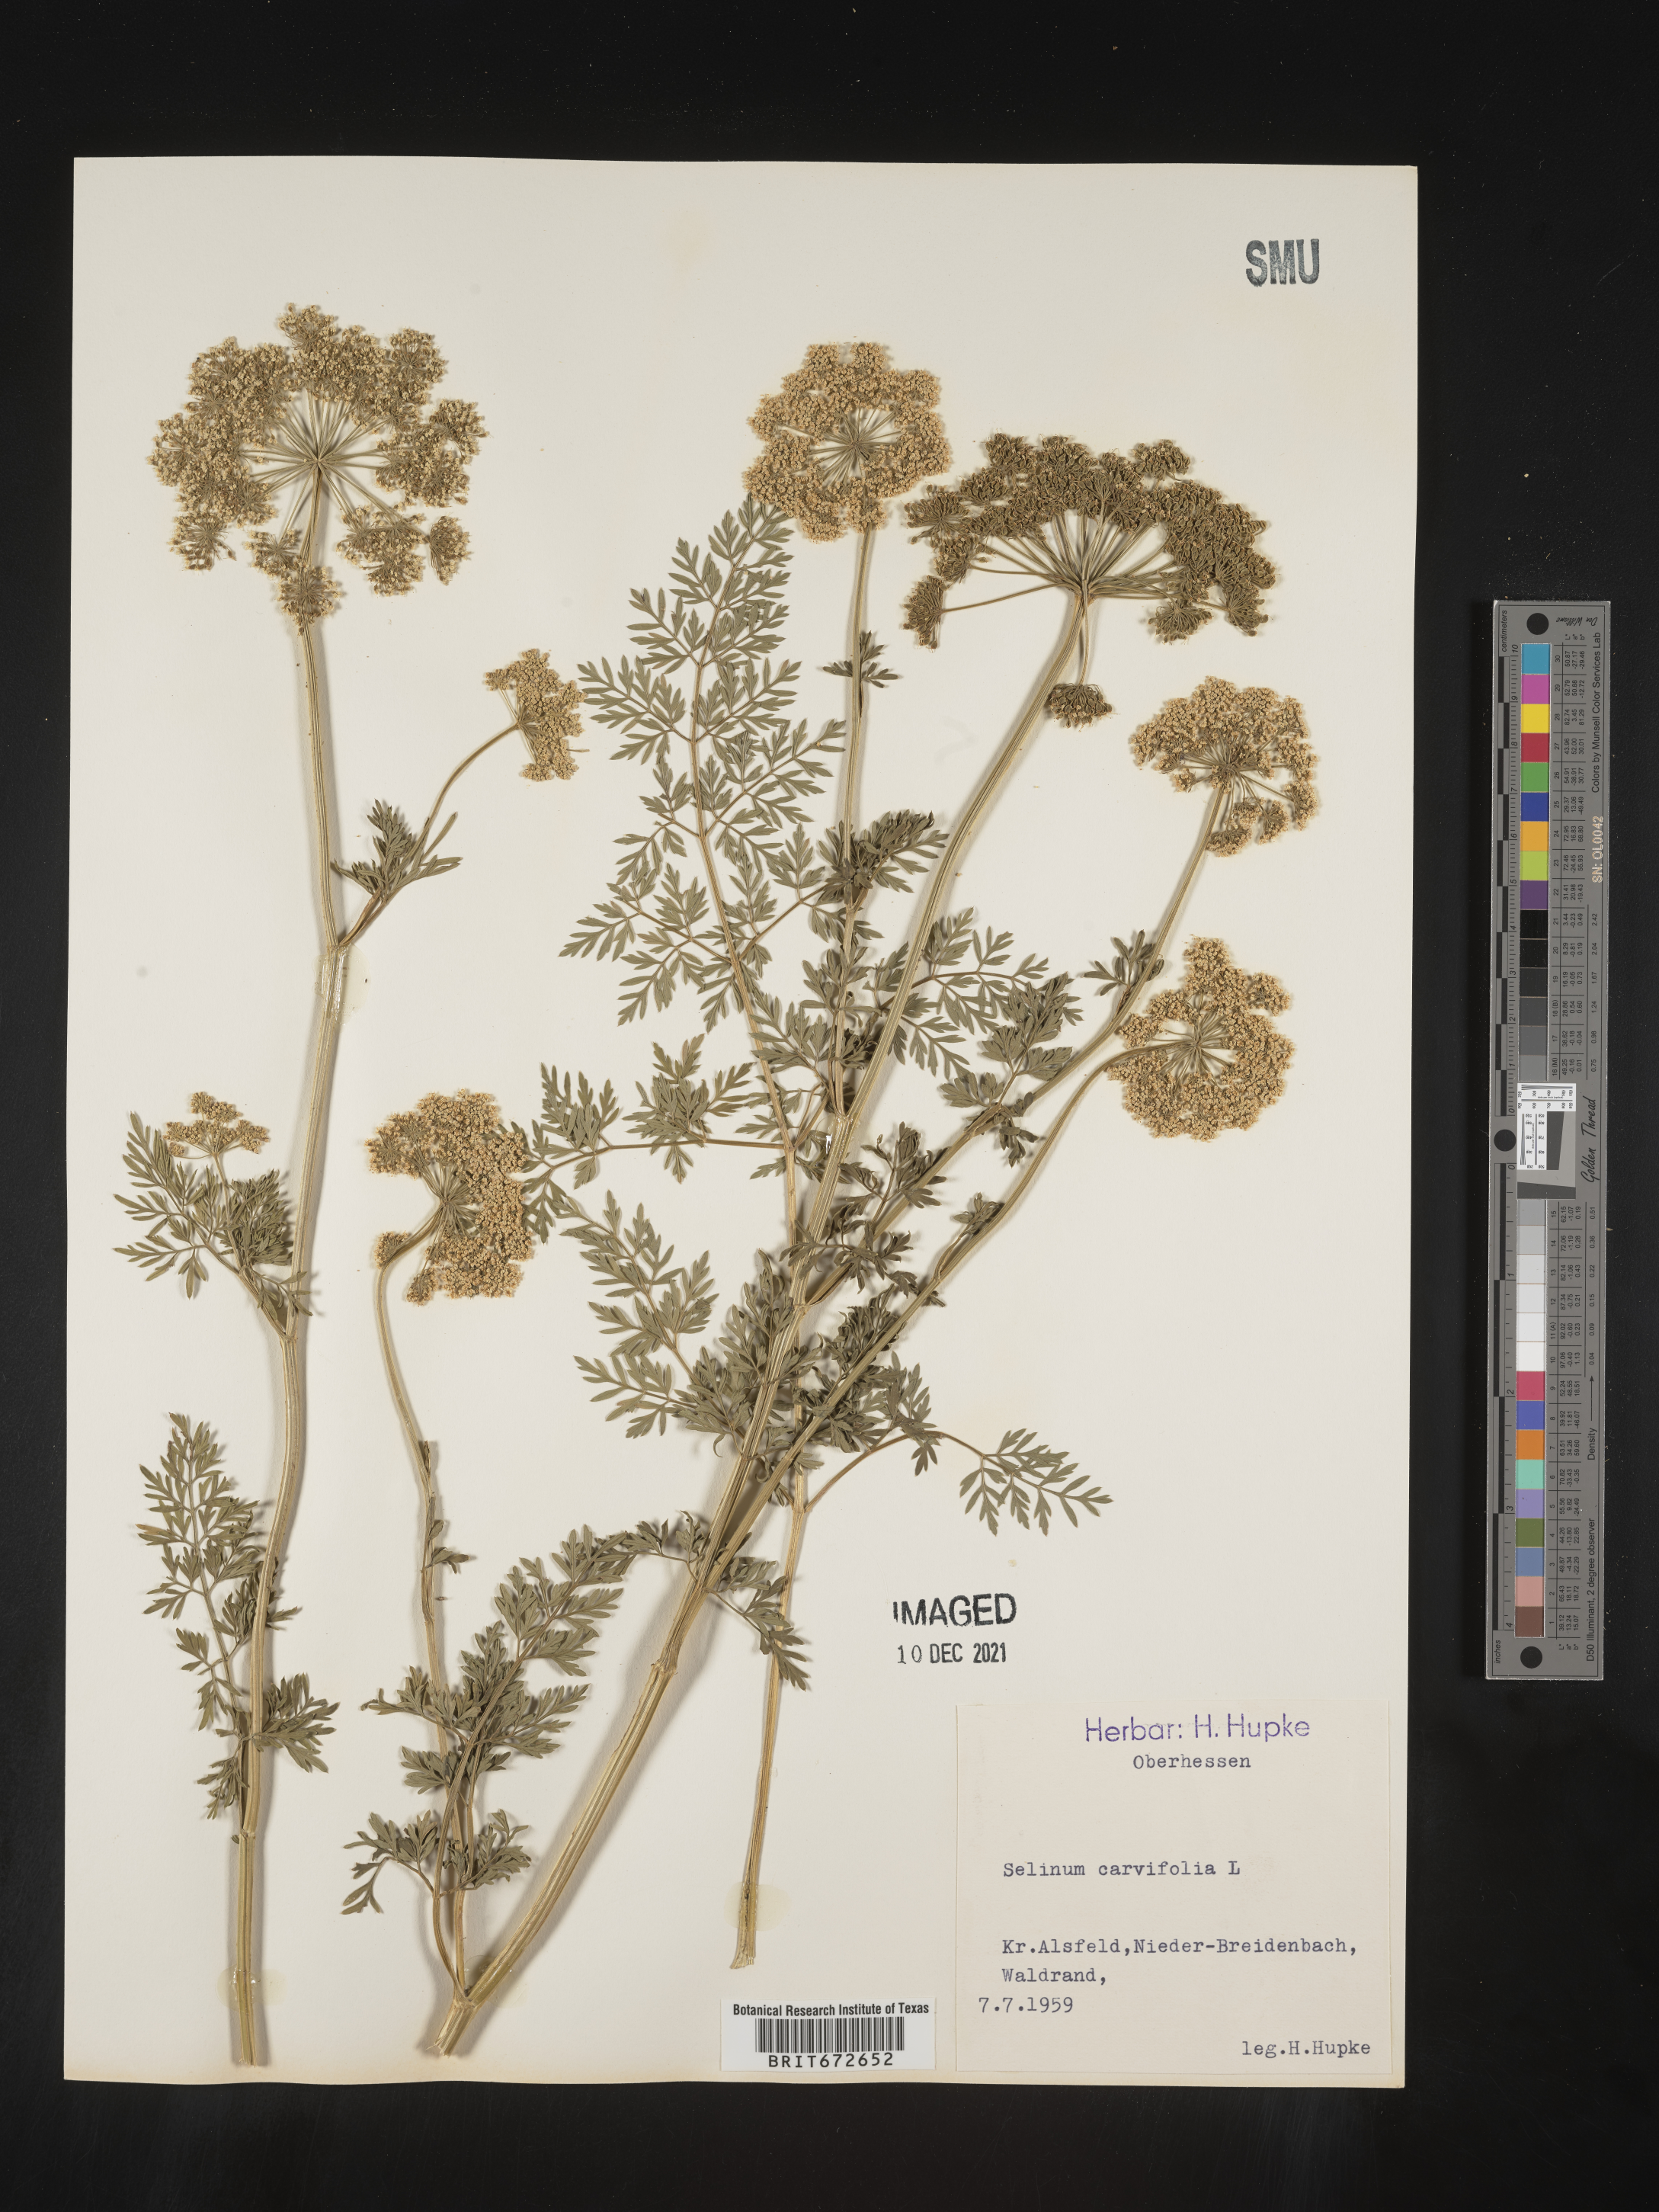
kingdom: Plantae
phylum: Tracheophyta
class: Magnoliopsida
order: Apiales
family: Apiaceae
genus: Selinum
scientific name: Selinum
